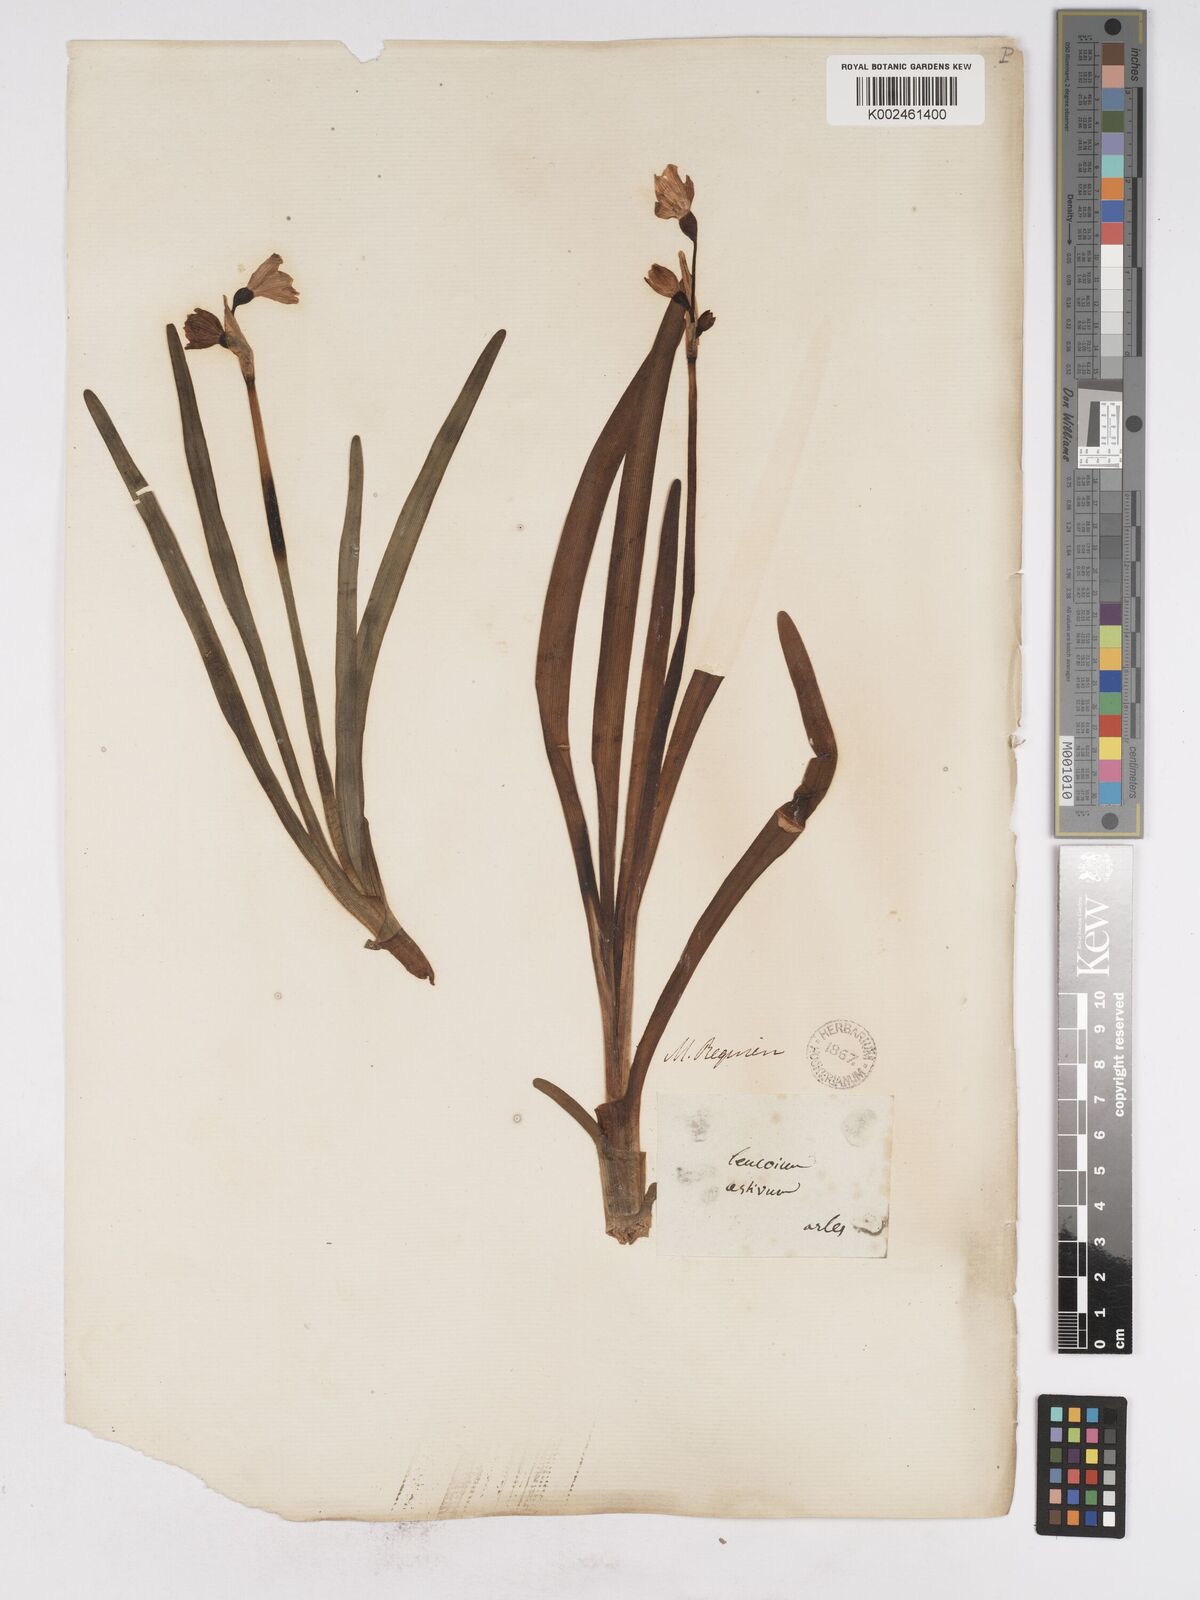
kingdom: Plantae
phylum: Tracheophyta
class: Liliopsida
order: Asparagales
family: Amaryllidaceae
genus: Leucojum
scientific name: Leucojum aestivum
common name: Summer snowflake
